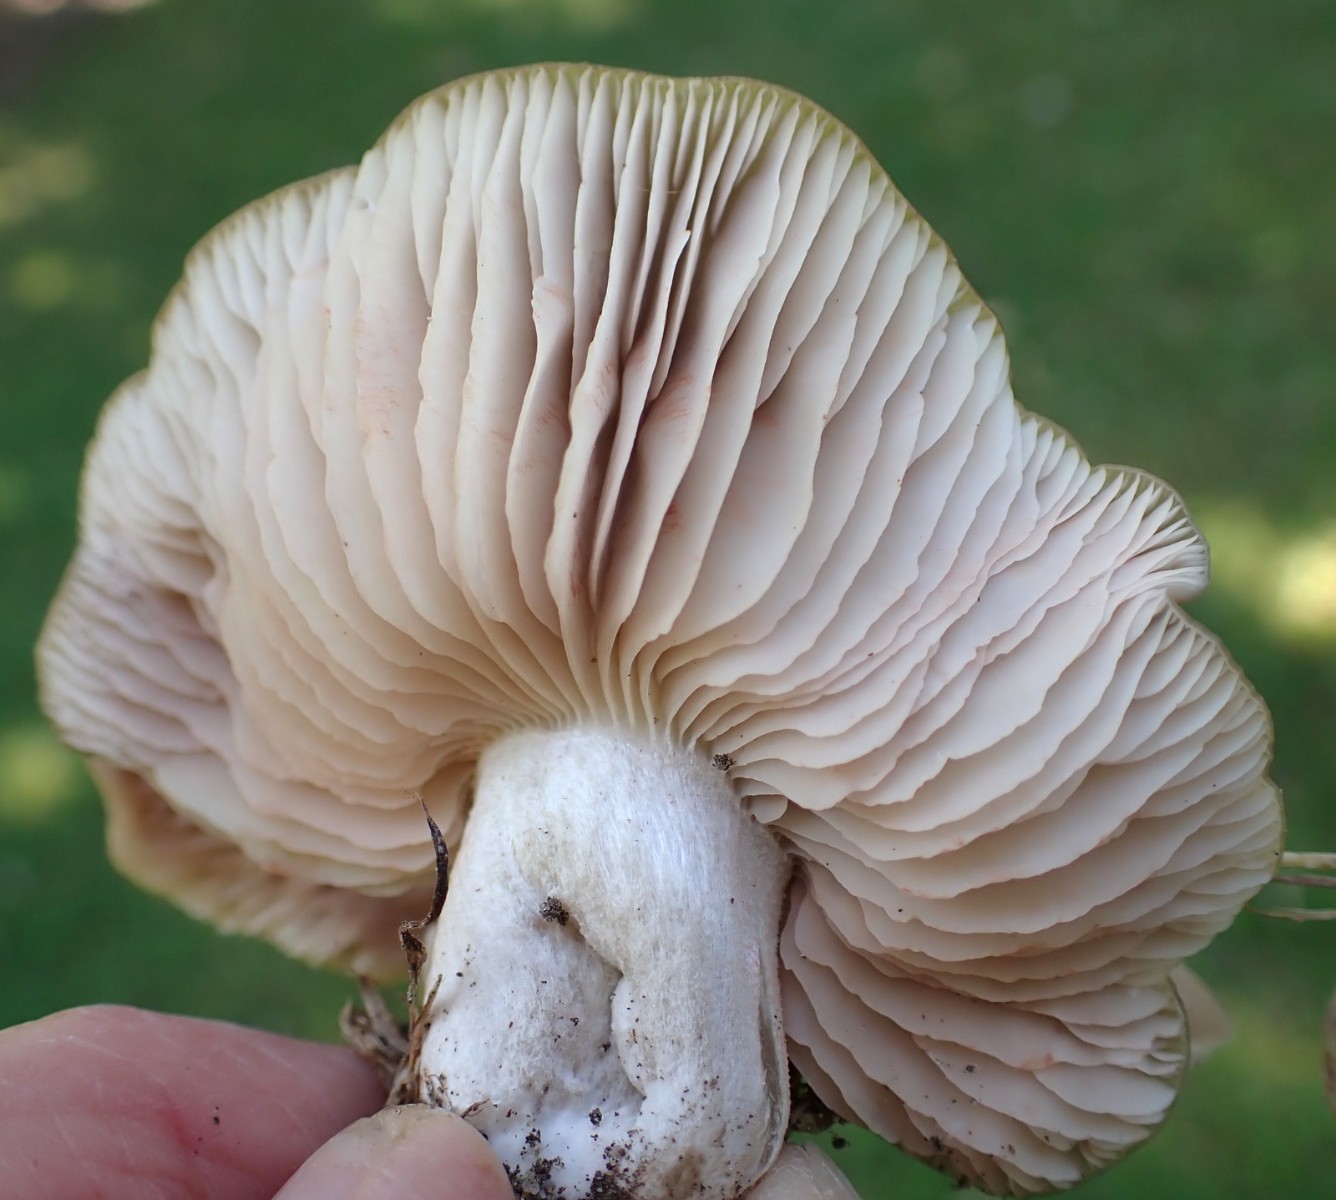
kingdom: Fungi
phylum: Basidiomycota
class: Agaricomycetes
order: Agaricales
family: Entolomataceae
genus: Entoloma
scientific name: Entoloma lividoalbum
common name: lysstokket rødblad
